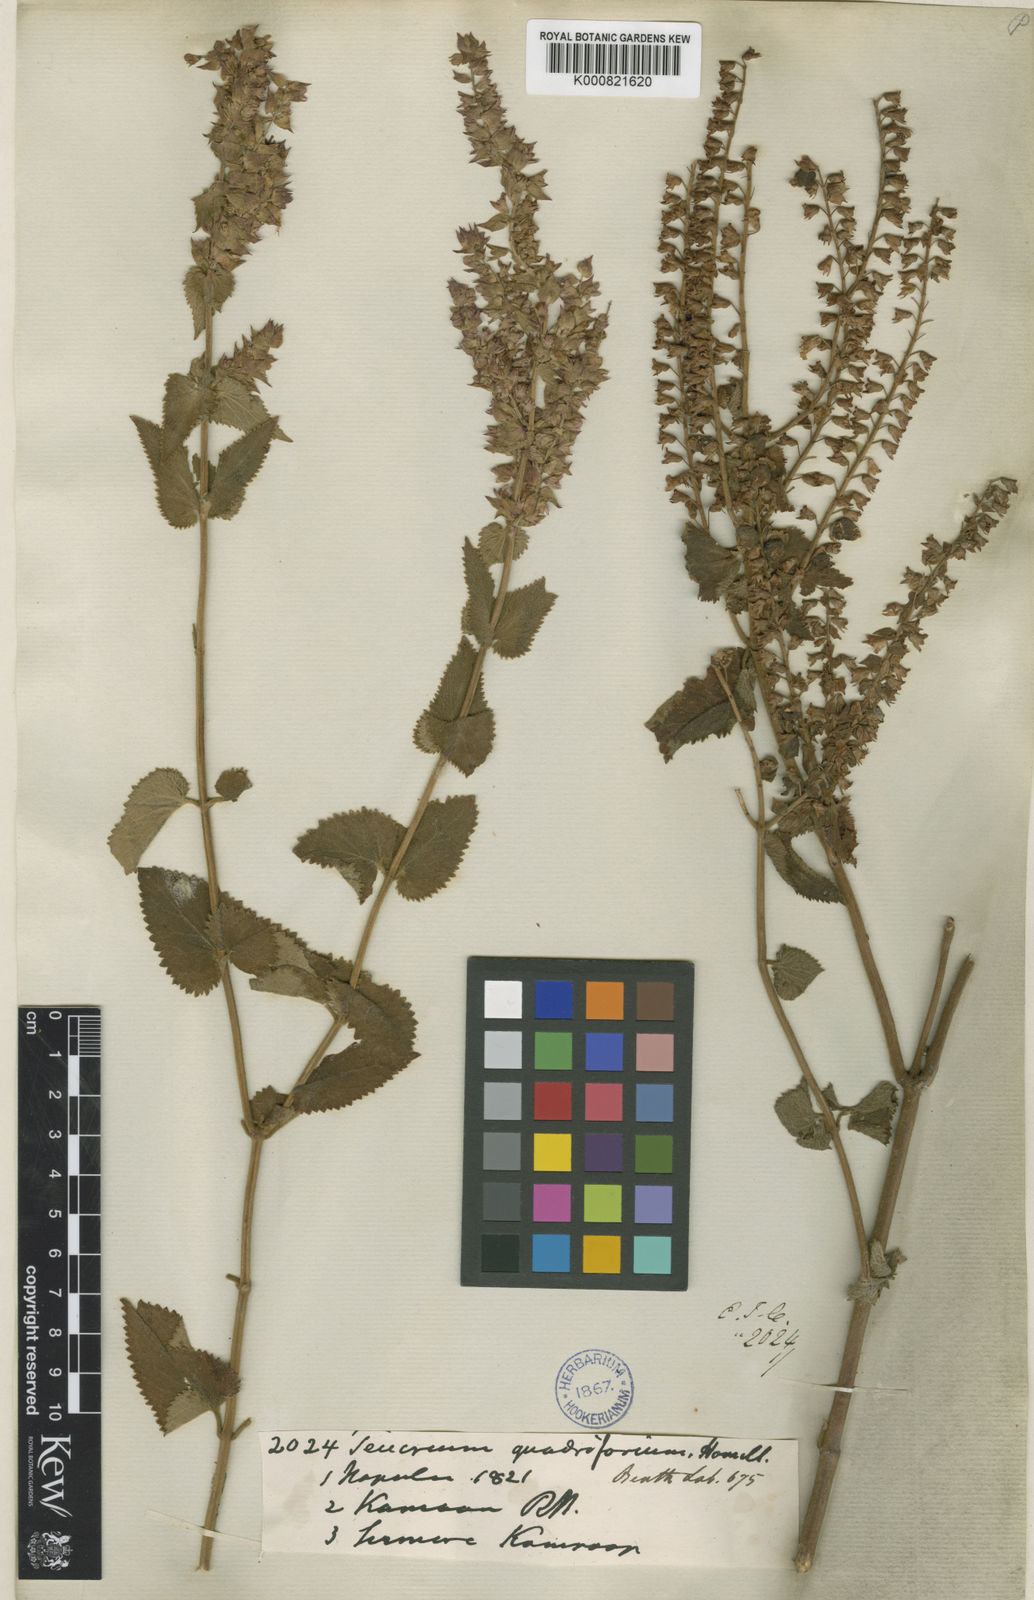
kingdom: Plantae
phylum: Tracheophyta
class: Magnoliopsida
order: Lamiales
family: Lamiaceae
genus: Teucrium
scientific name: Teucrium
